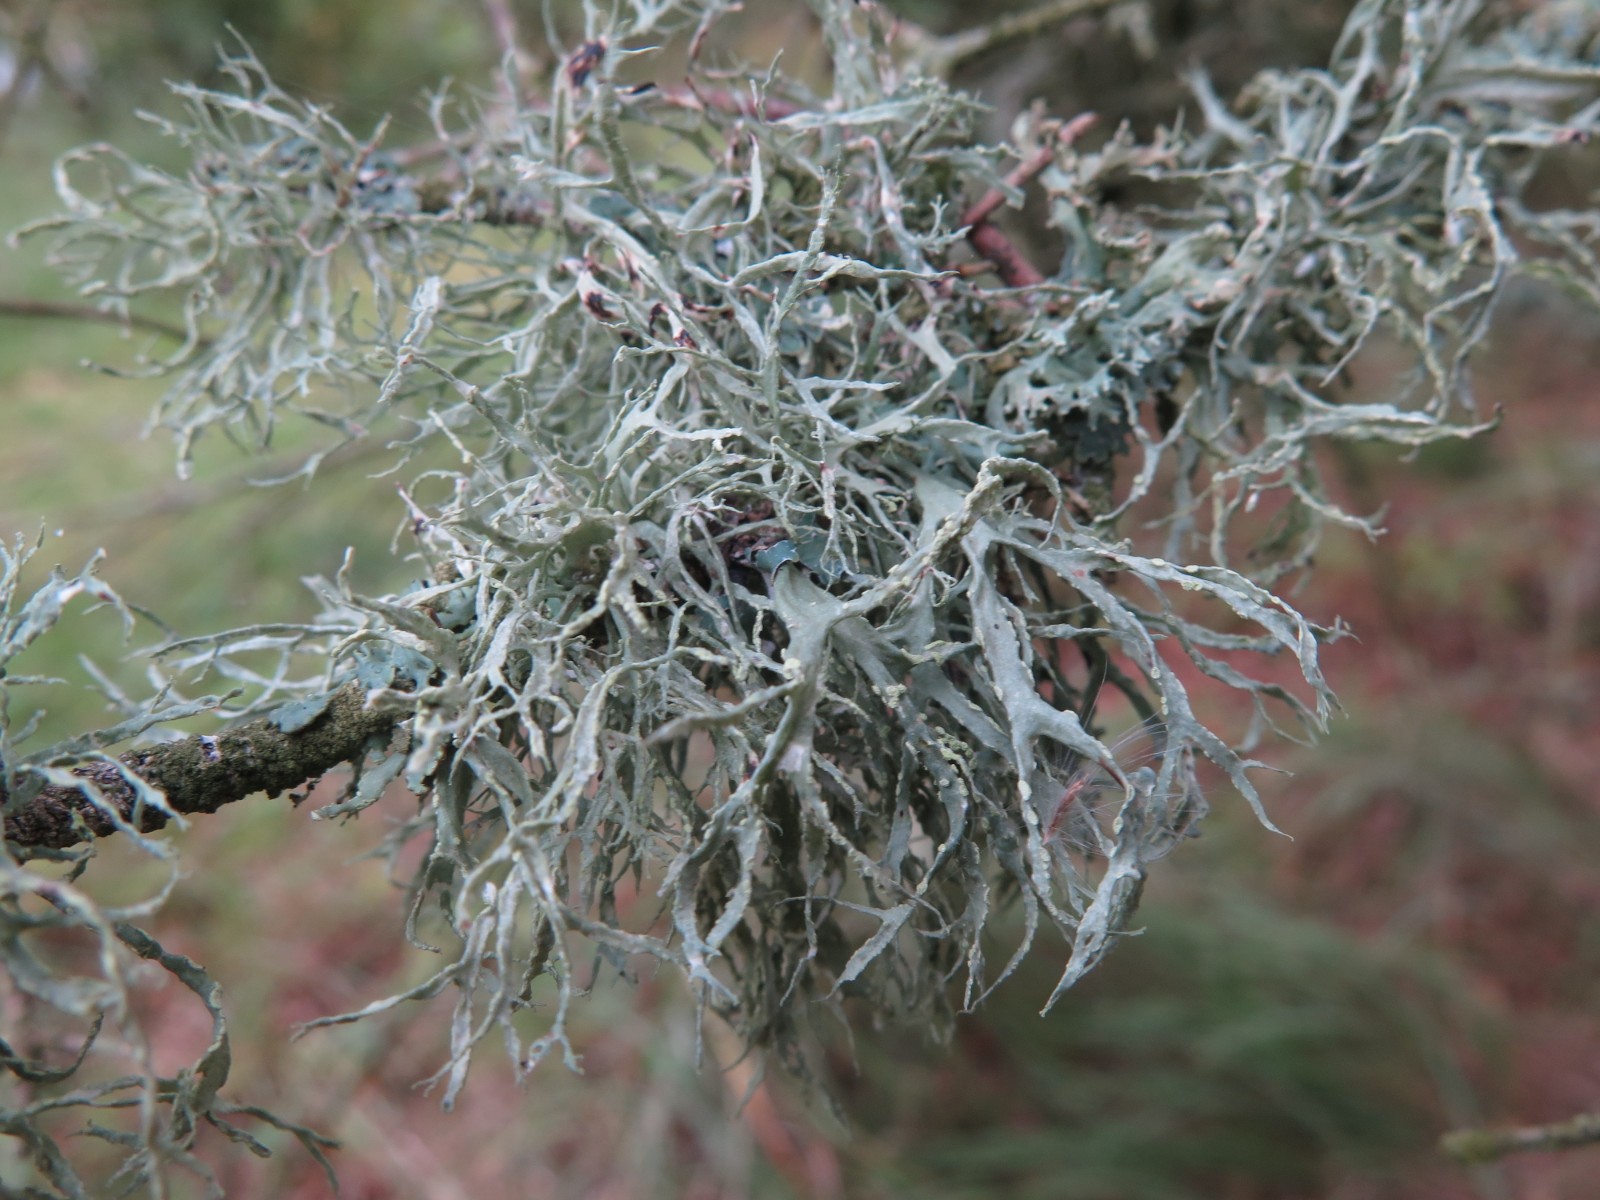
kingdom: Fungi
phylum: Ascomycota
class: Lecanoromycetes
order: Lecanorales
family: Ramalinaceae
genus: Ramalina
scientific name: Ramalina farinacea
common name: melet grenlav
